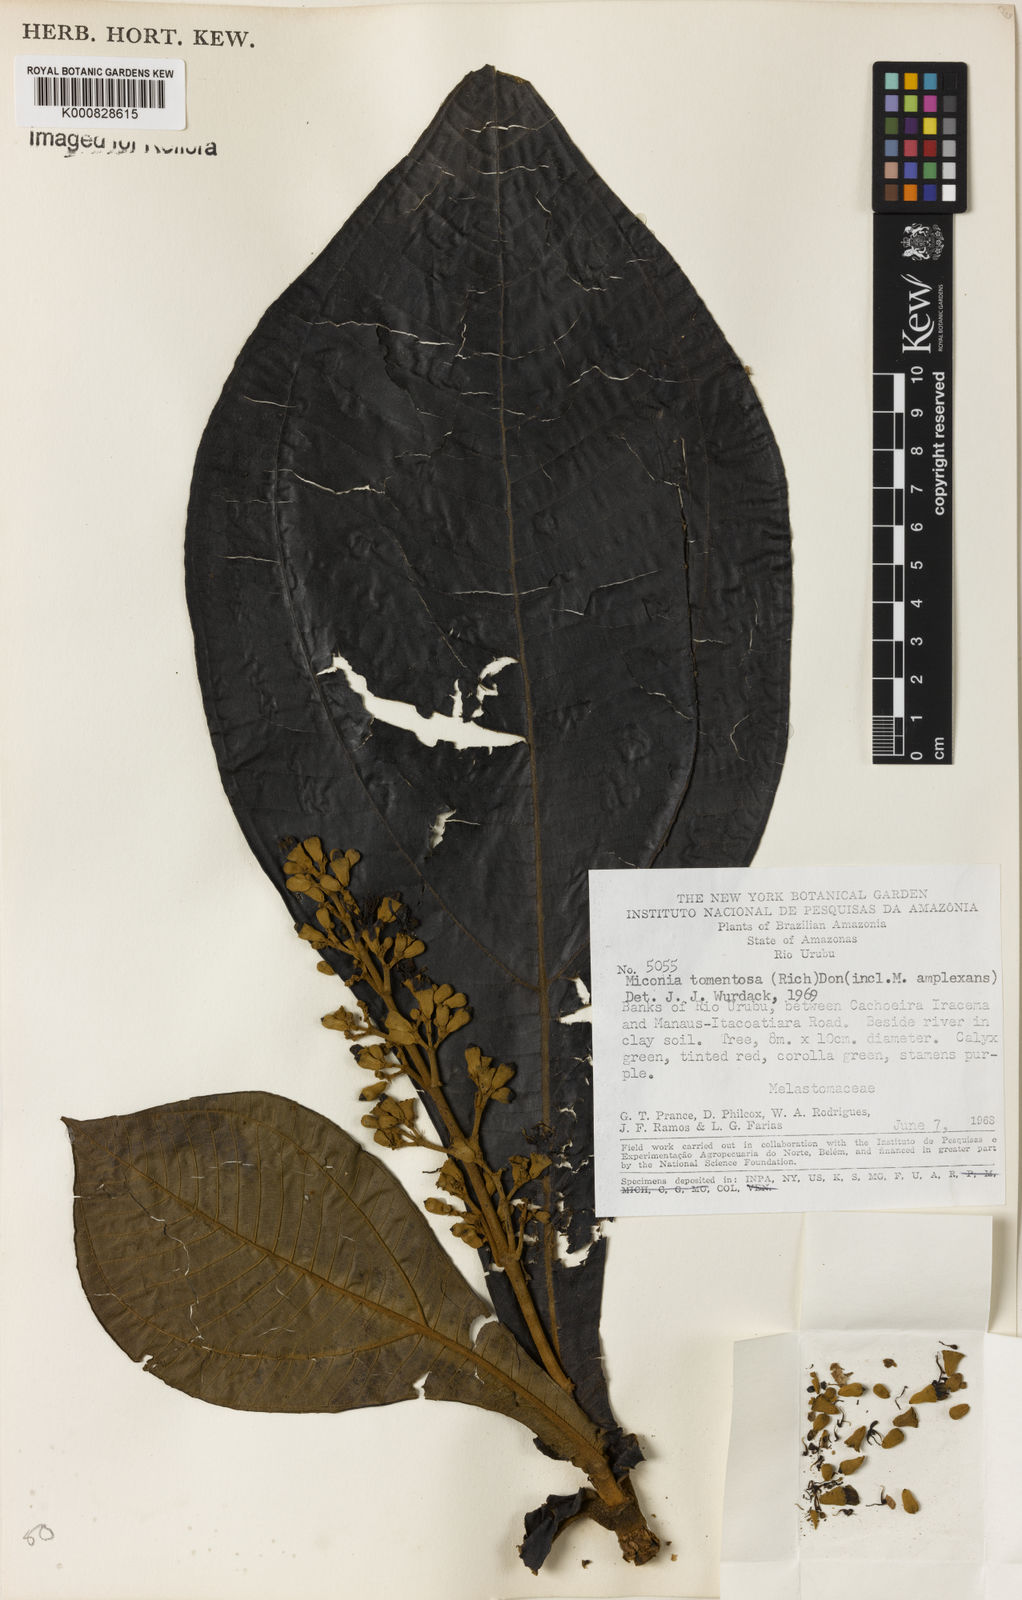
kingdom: Plantae
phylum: Tracheophyta
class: Magnoliopsida
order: Myrtales
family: Melastomataceae
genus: Miconia
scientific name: Miconia tomentosa
